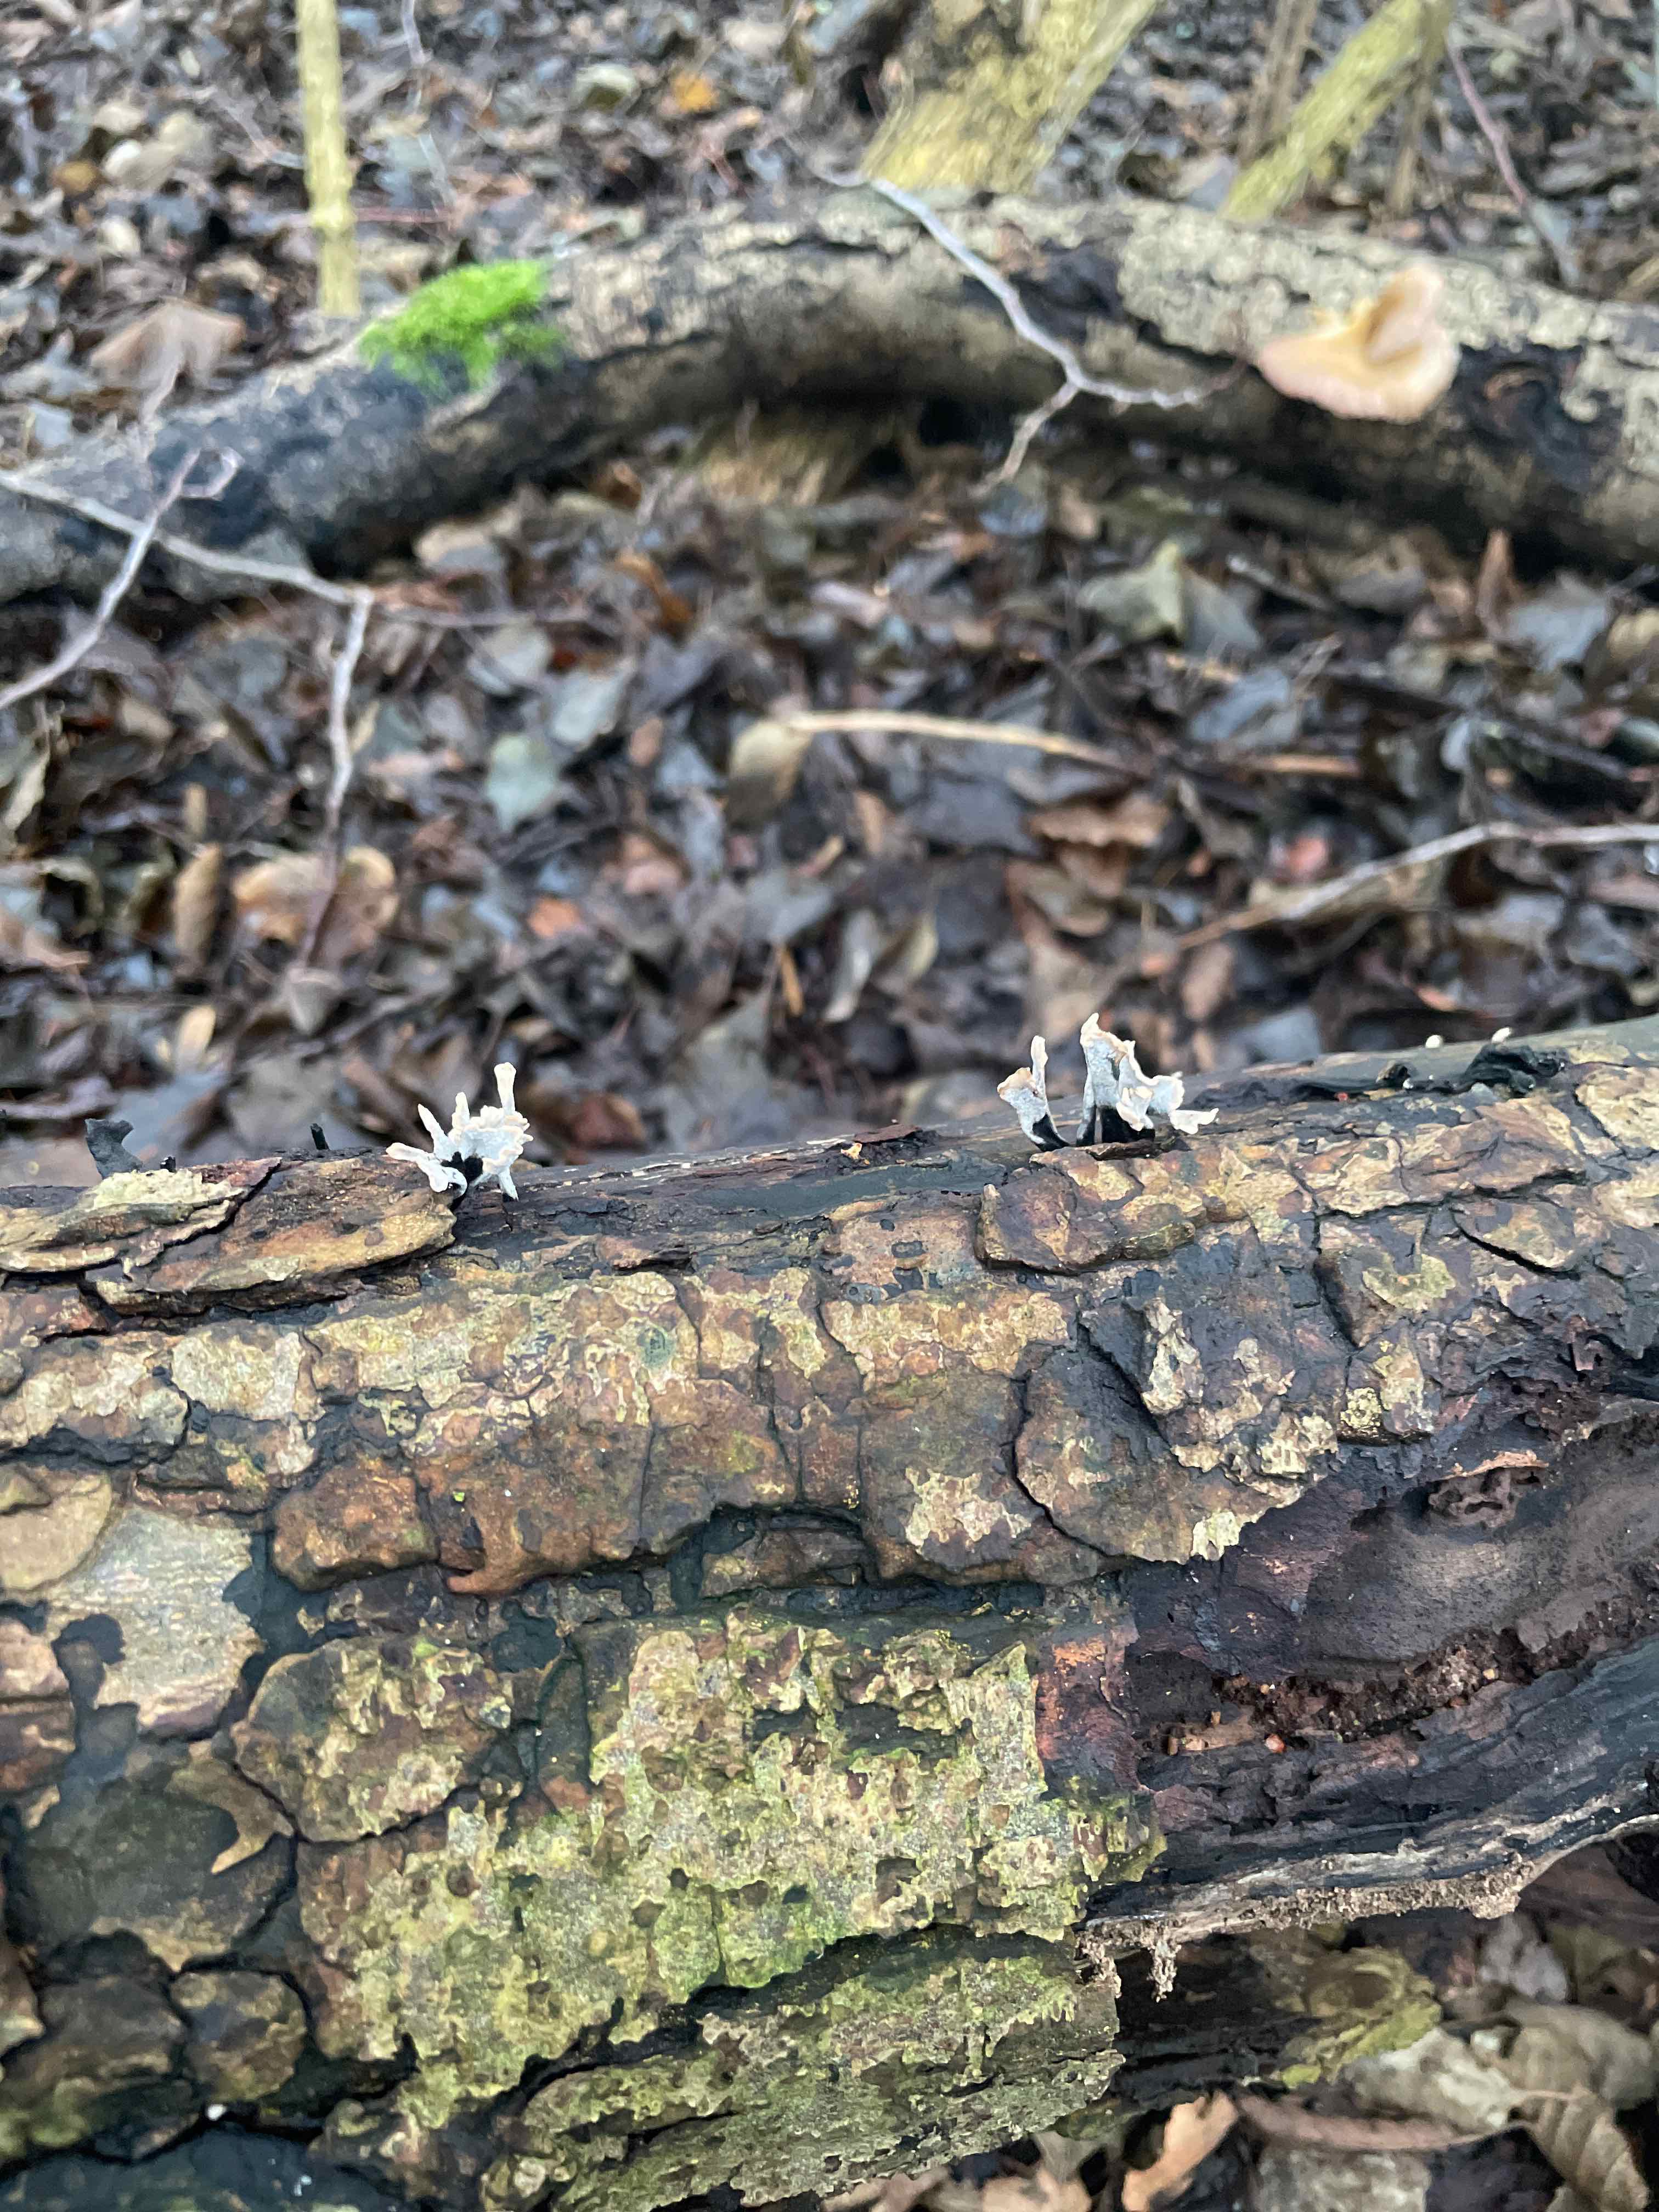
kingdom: Fungi
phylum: Ascomycota
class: Sordariomycetes
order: Xylariales
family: Xylariaceae
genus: Xylaria
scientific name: Xylaria hypoxylon
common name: grenet stødsvamp
